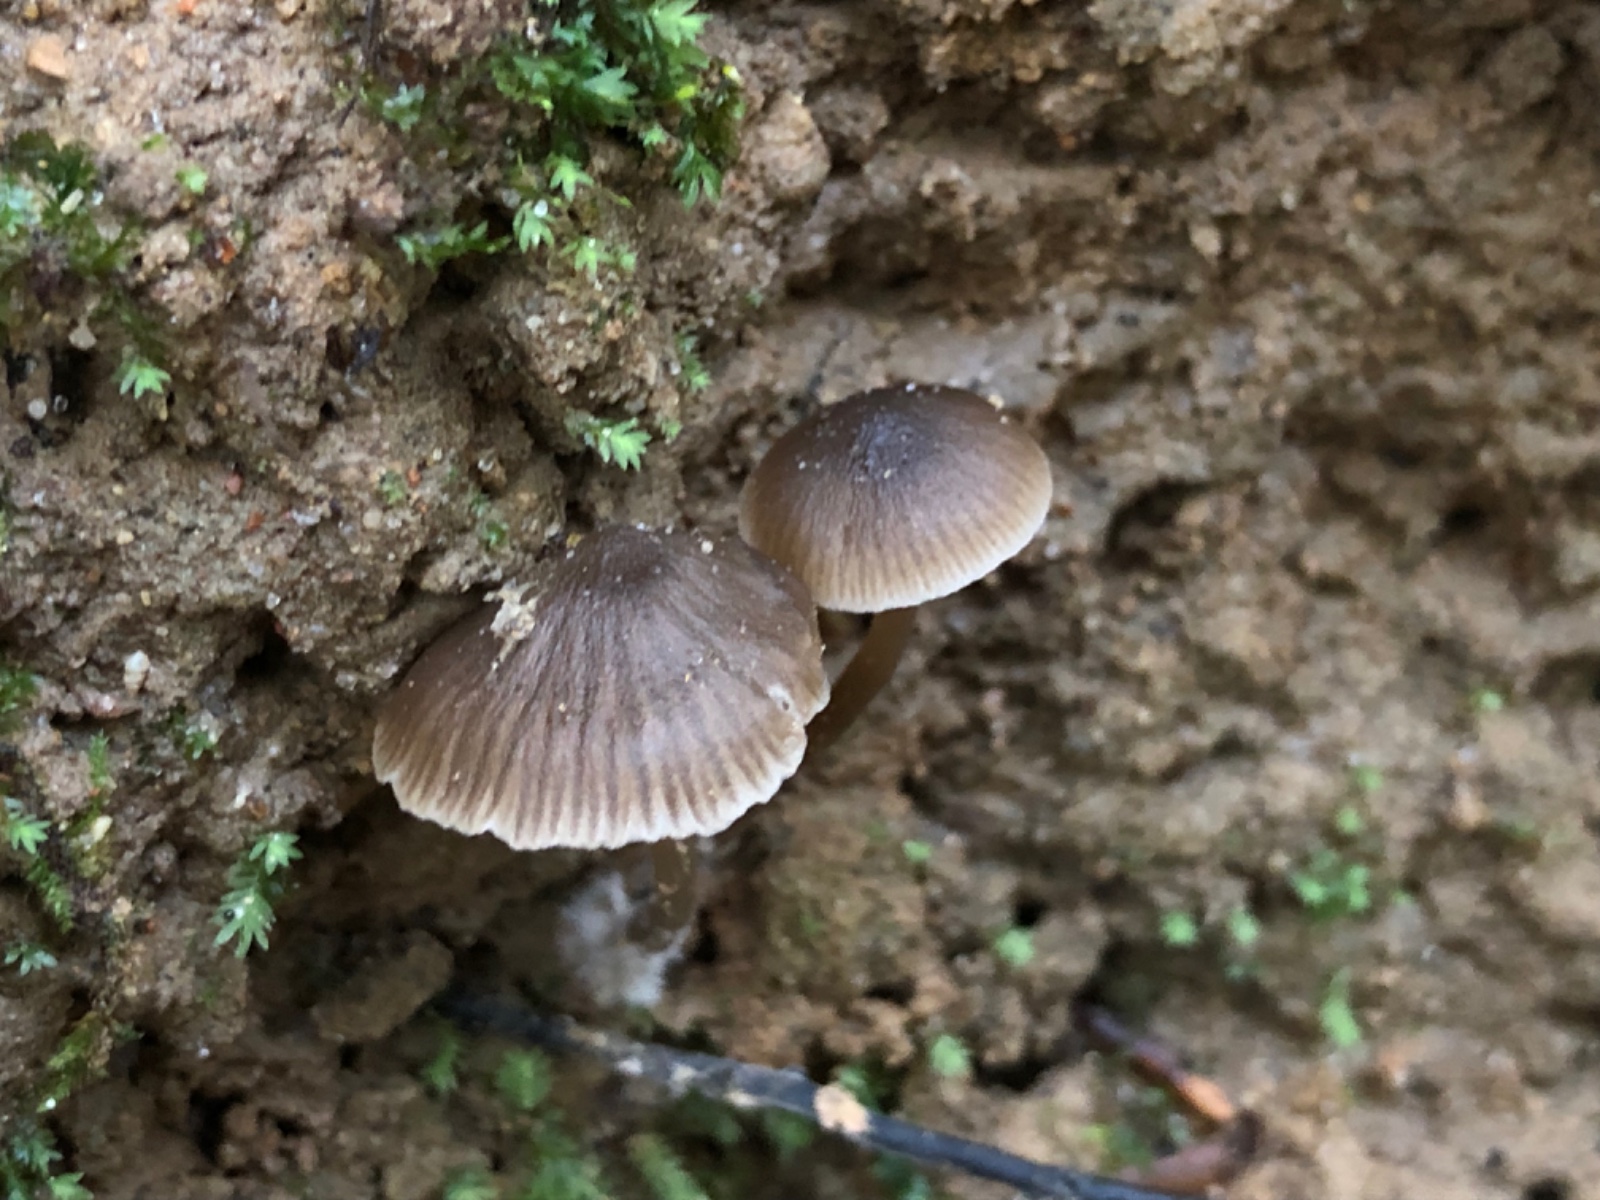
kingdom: Fungi
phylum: Basidiomycota
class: Agaricomycetes
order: Agaricales
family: Tricholomataceae
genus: Fayodia
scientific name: Fayodia bisphaerigera
